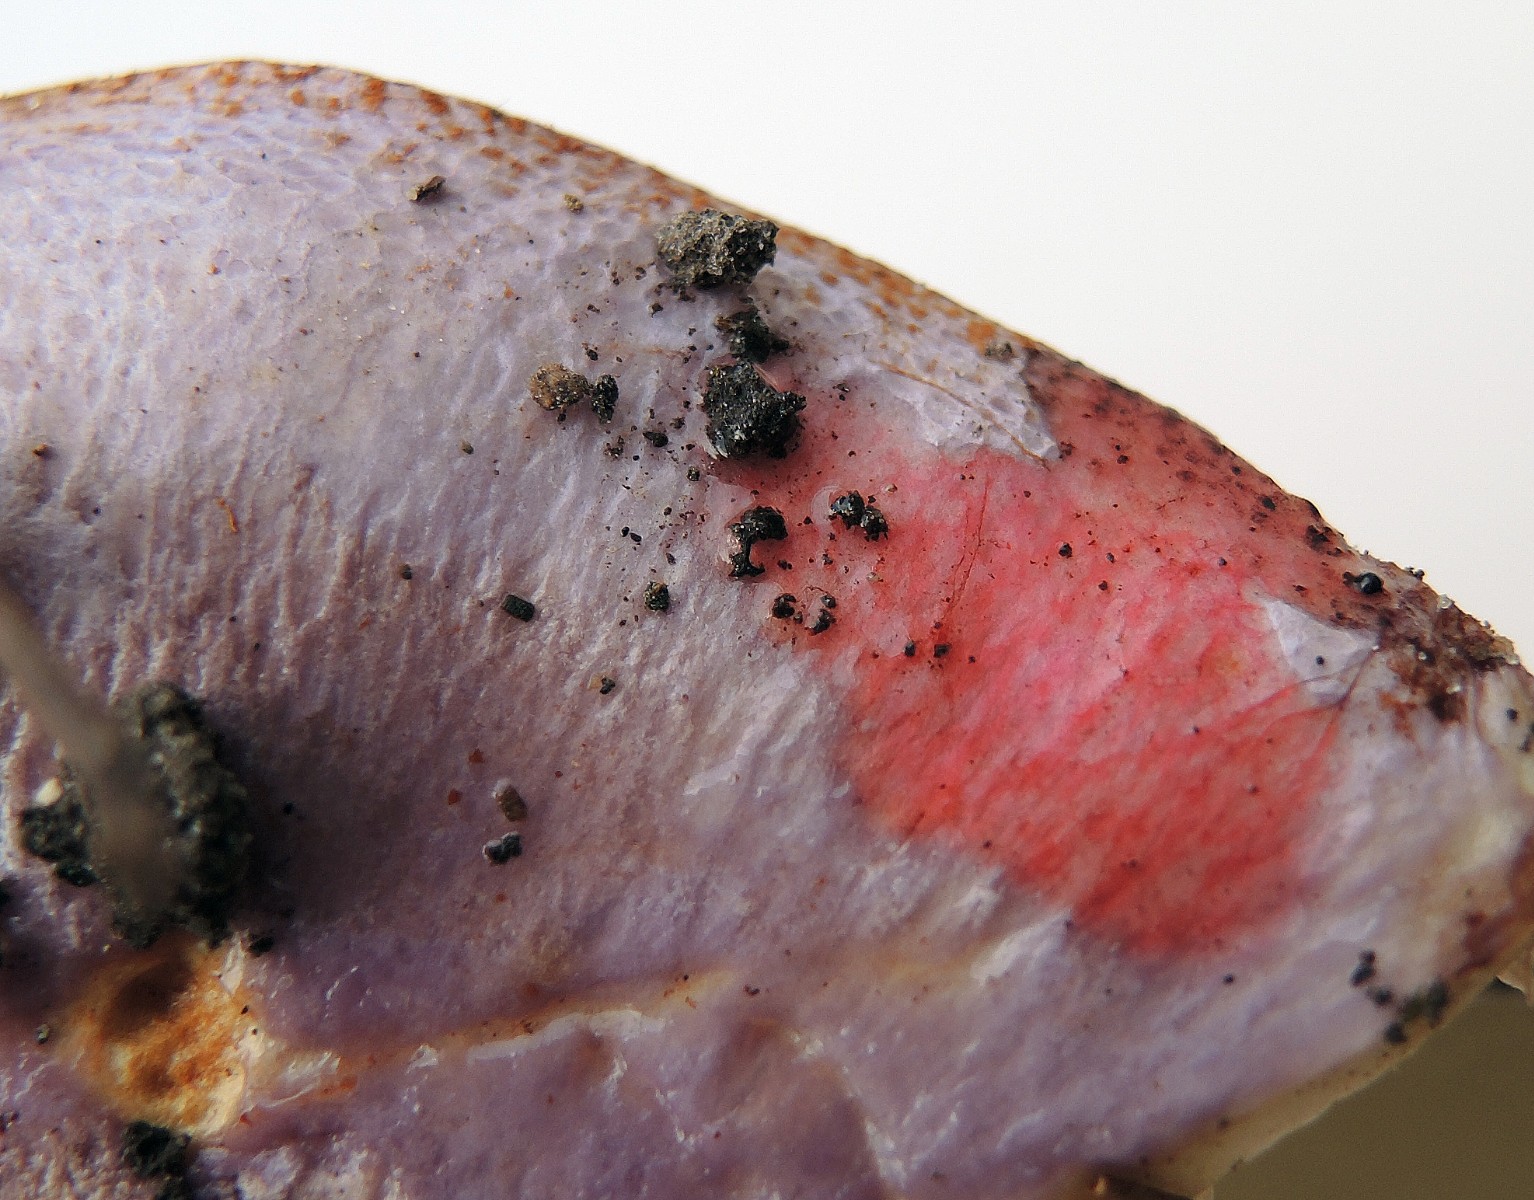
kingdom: Fungi
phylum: Basidiomycota
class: Agaricomycetes
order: Agaricales
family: Cortinariaceae
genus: Calonarius
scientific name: Calonarius sodagnitus
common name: violblå slørhat
